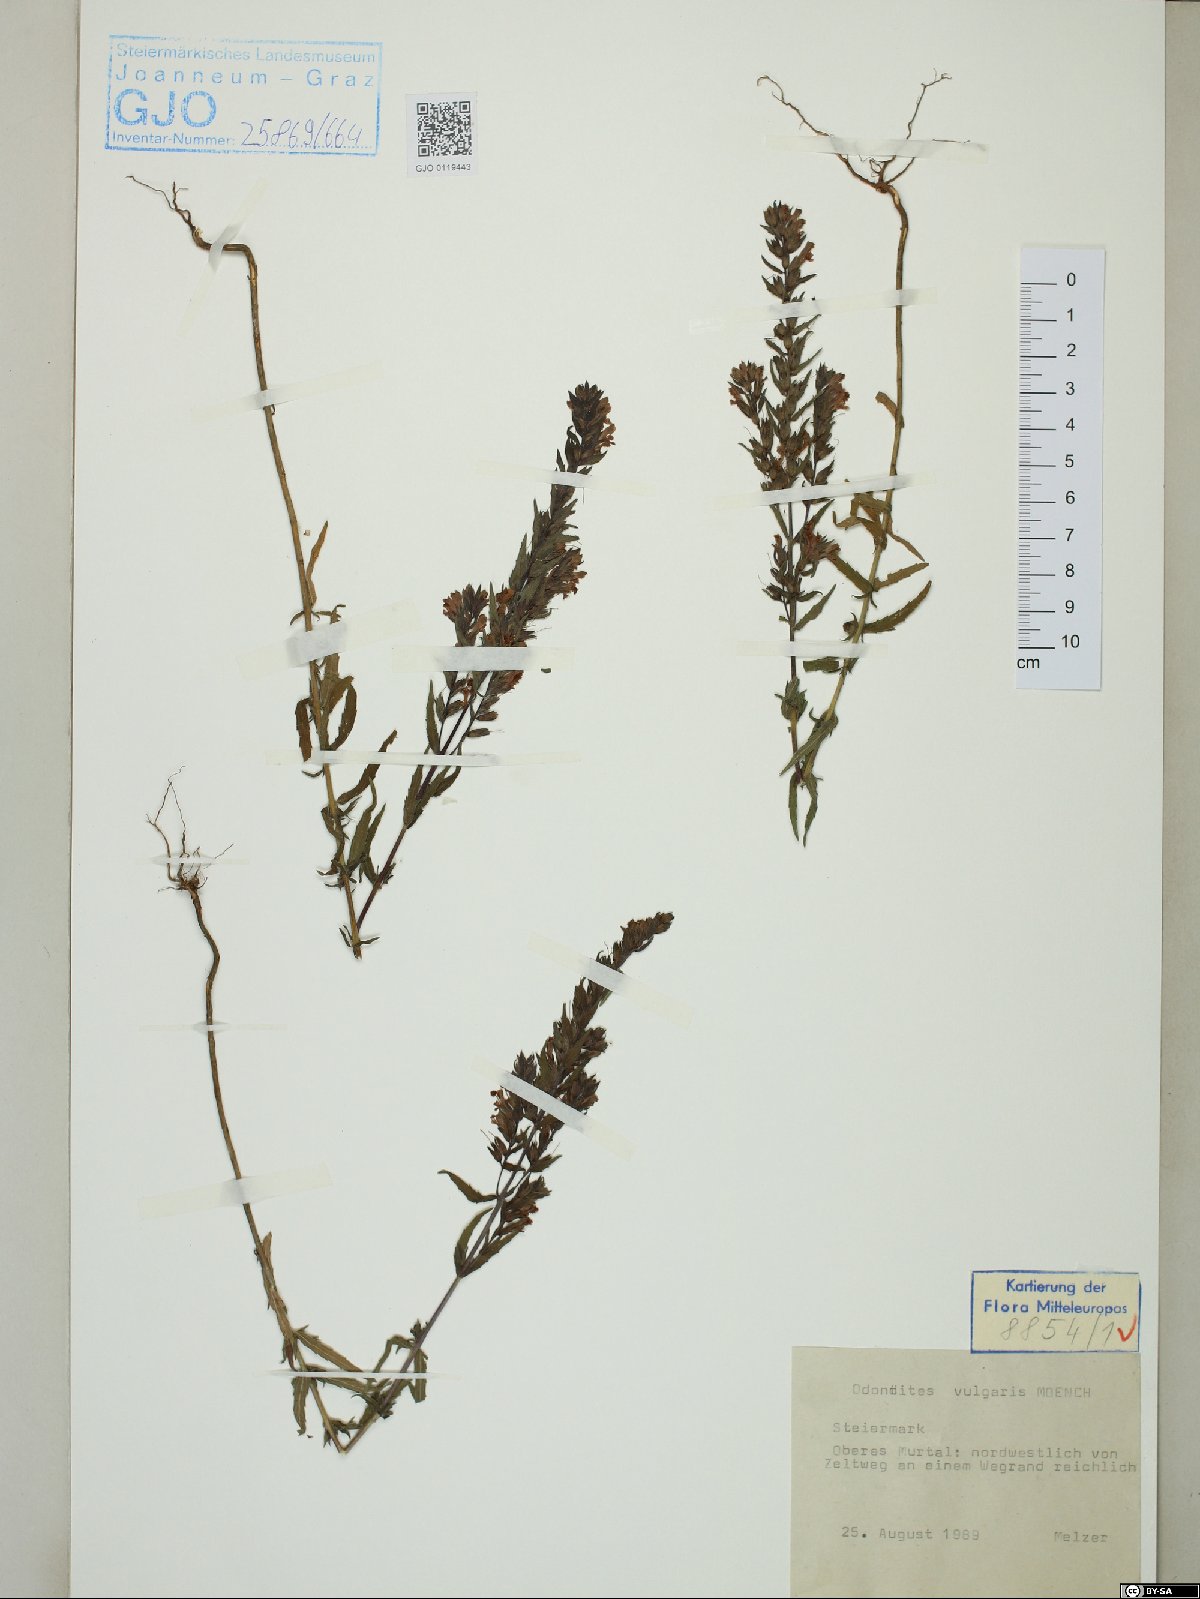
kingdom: Plantae
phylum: Tracheophyta
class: Magnoliopsida
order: Lamiales
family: Orobanchaceae
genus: Odontites
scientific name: Odontites vulgaris
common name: Broomrape
